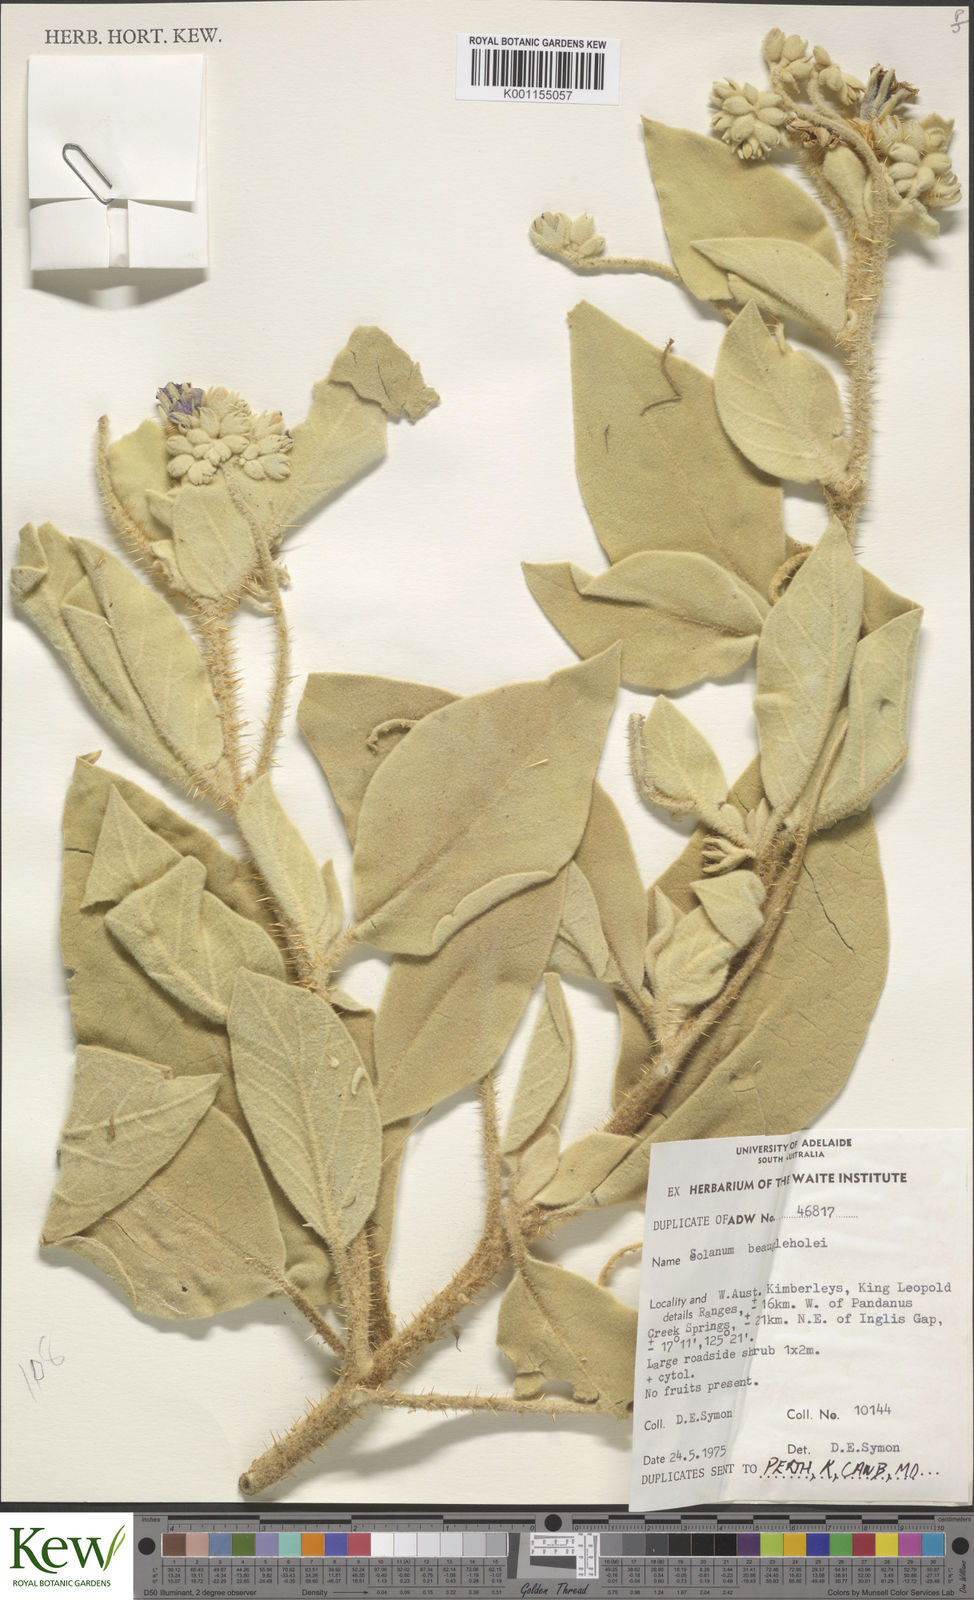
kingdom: Plantae
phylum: Tracheophyta
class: Magnoliopsida
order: Solanales
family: Solanaceae
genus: Solanum
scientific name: Solanum beaugleholei
